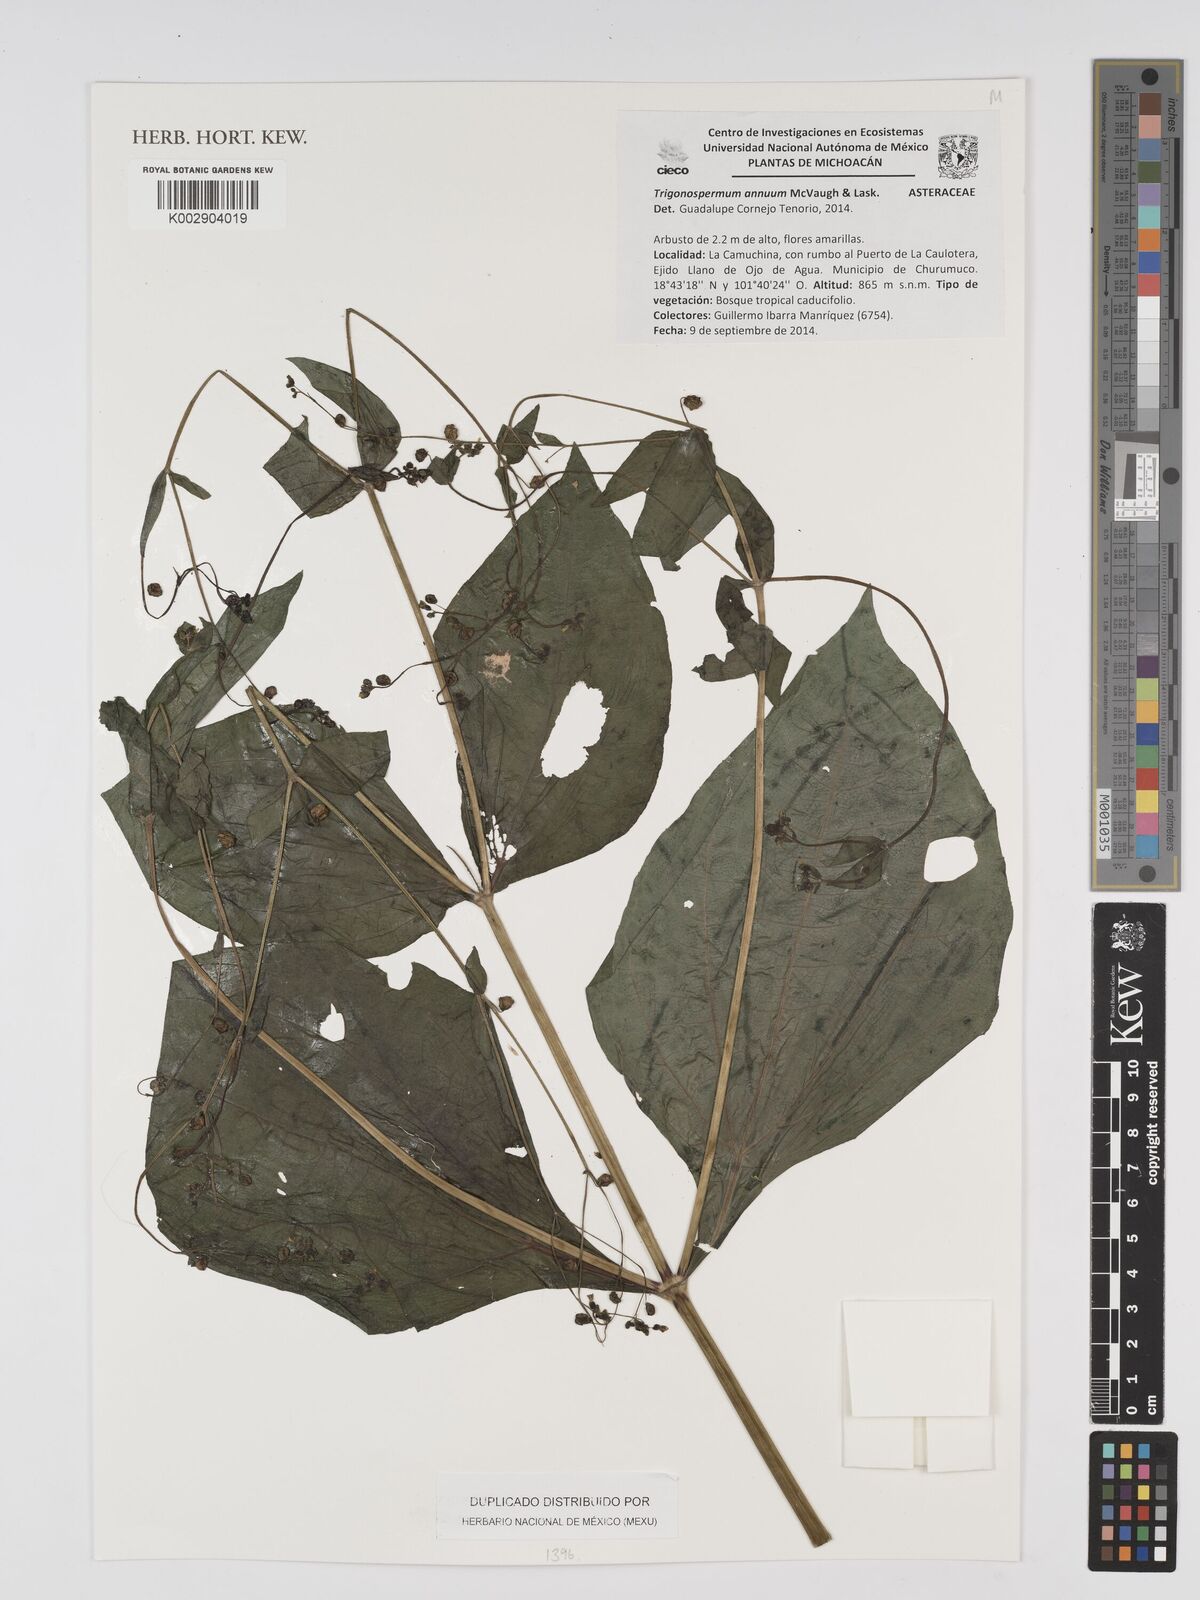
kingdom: Plantae
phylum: Tracheophyta
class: Magnoliopsida
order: Asterales
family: Asteraceae
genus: Trigonospermum
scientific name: Trigonospermum annuum
